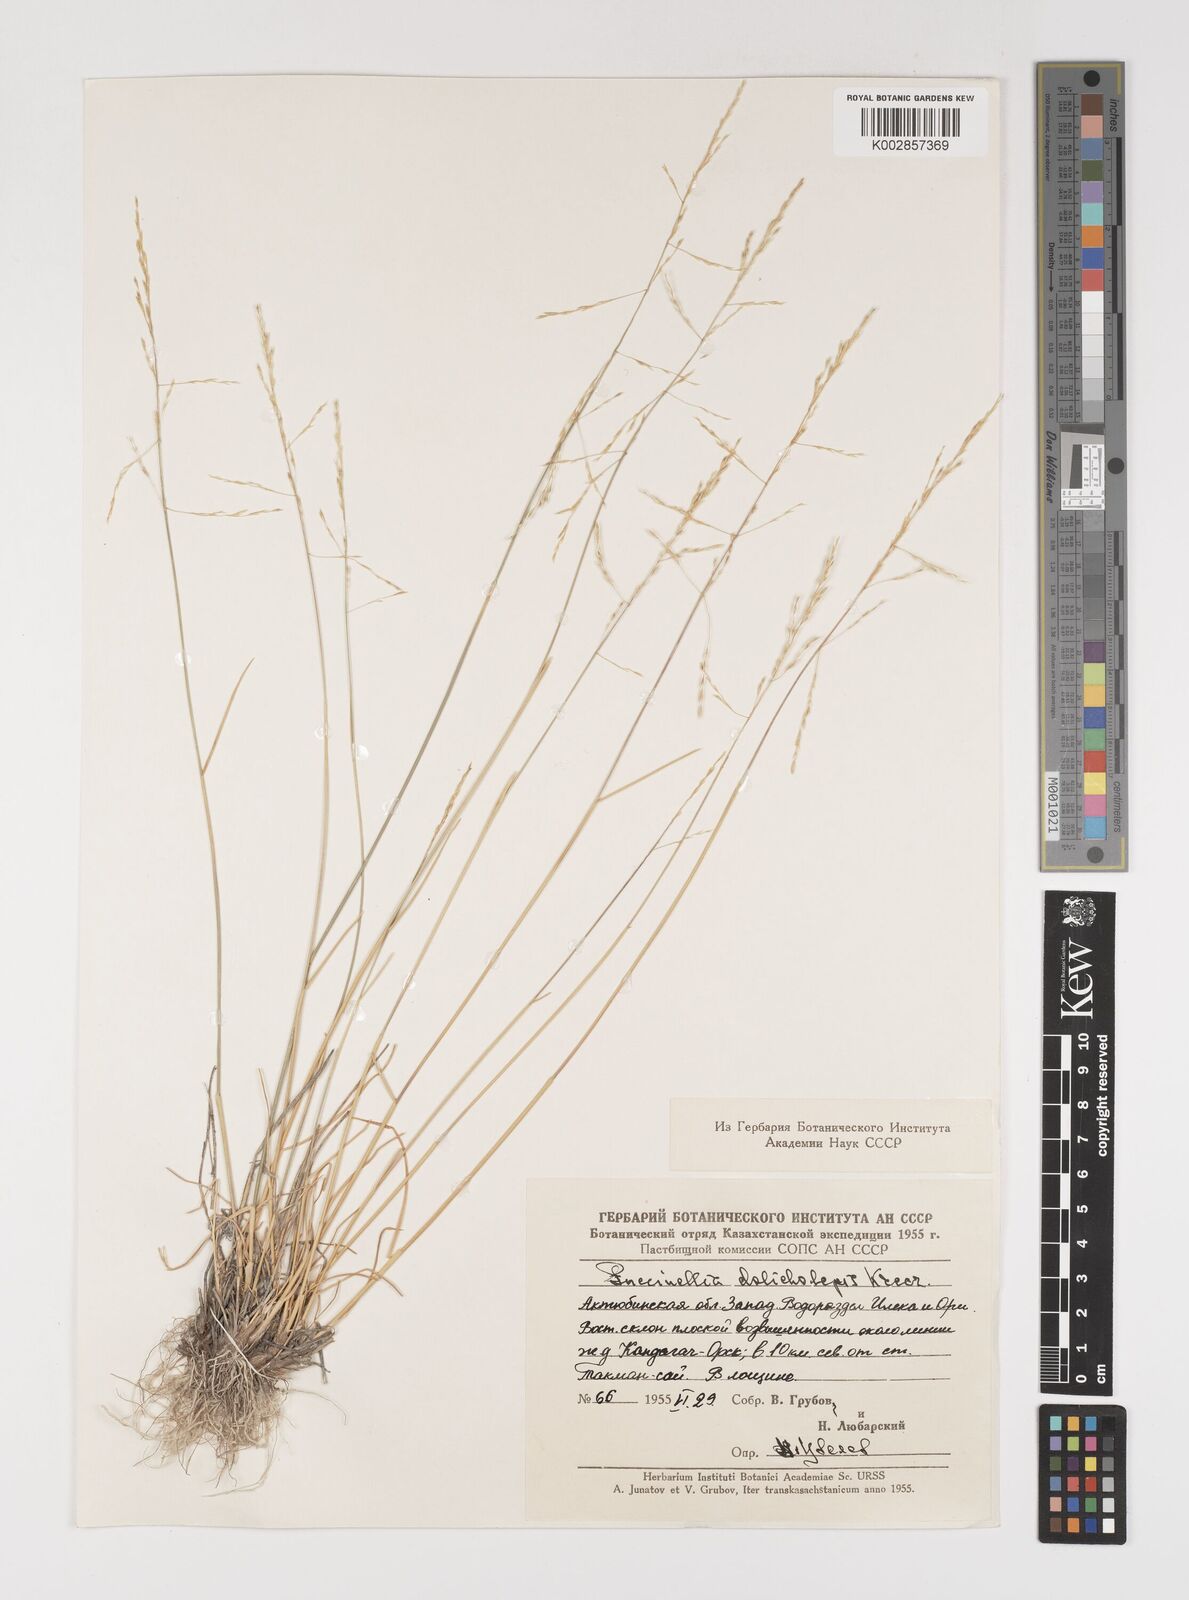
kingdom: Plantae
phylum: Tracheophyta
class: Liliopsida
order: Poales
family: Poaceae
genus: Puccinellia
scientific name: Puccinellia dolicholepis
